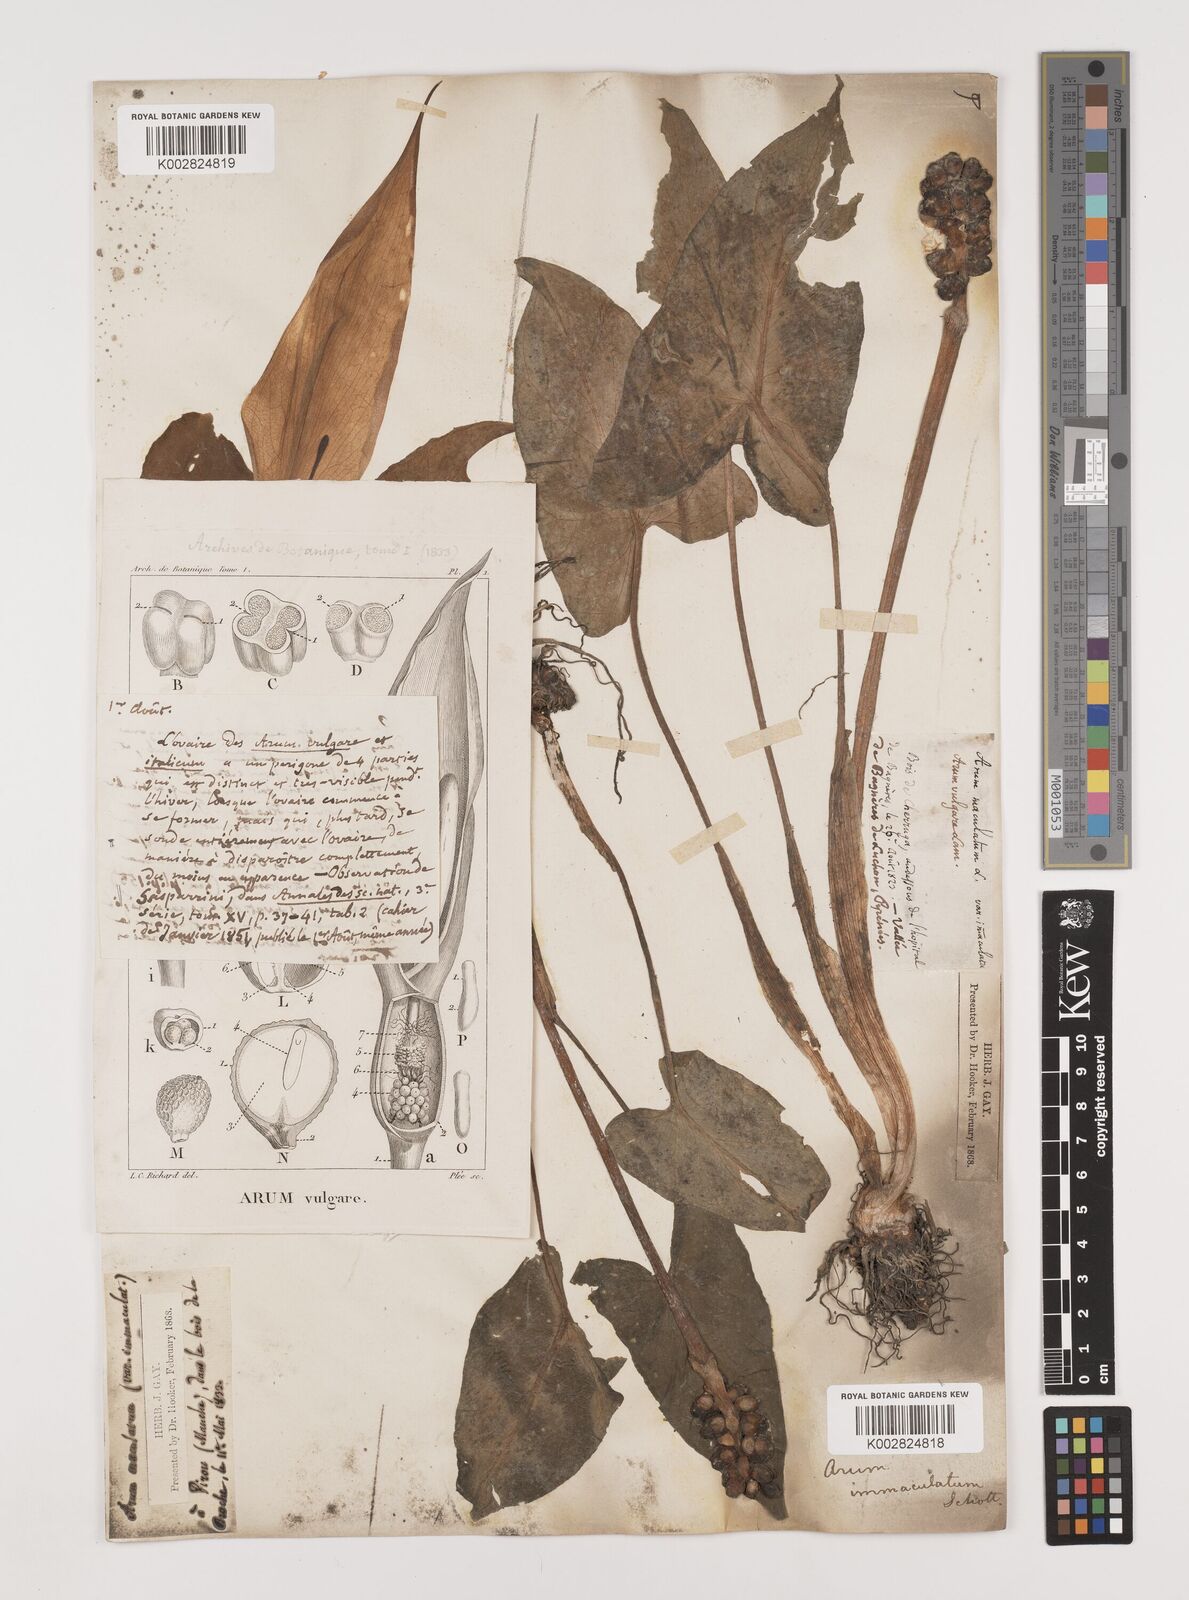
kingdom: Plantae
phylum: Tracheophyta
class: Liliopsida
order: Alismatales
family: Araceae
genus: Arum
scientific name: Arum maculatum
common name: Lords-and-ladies
